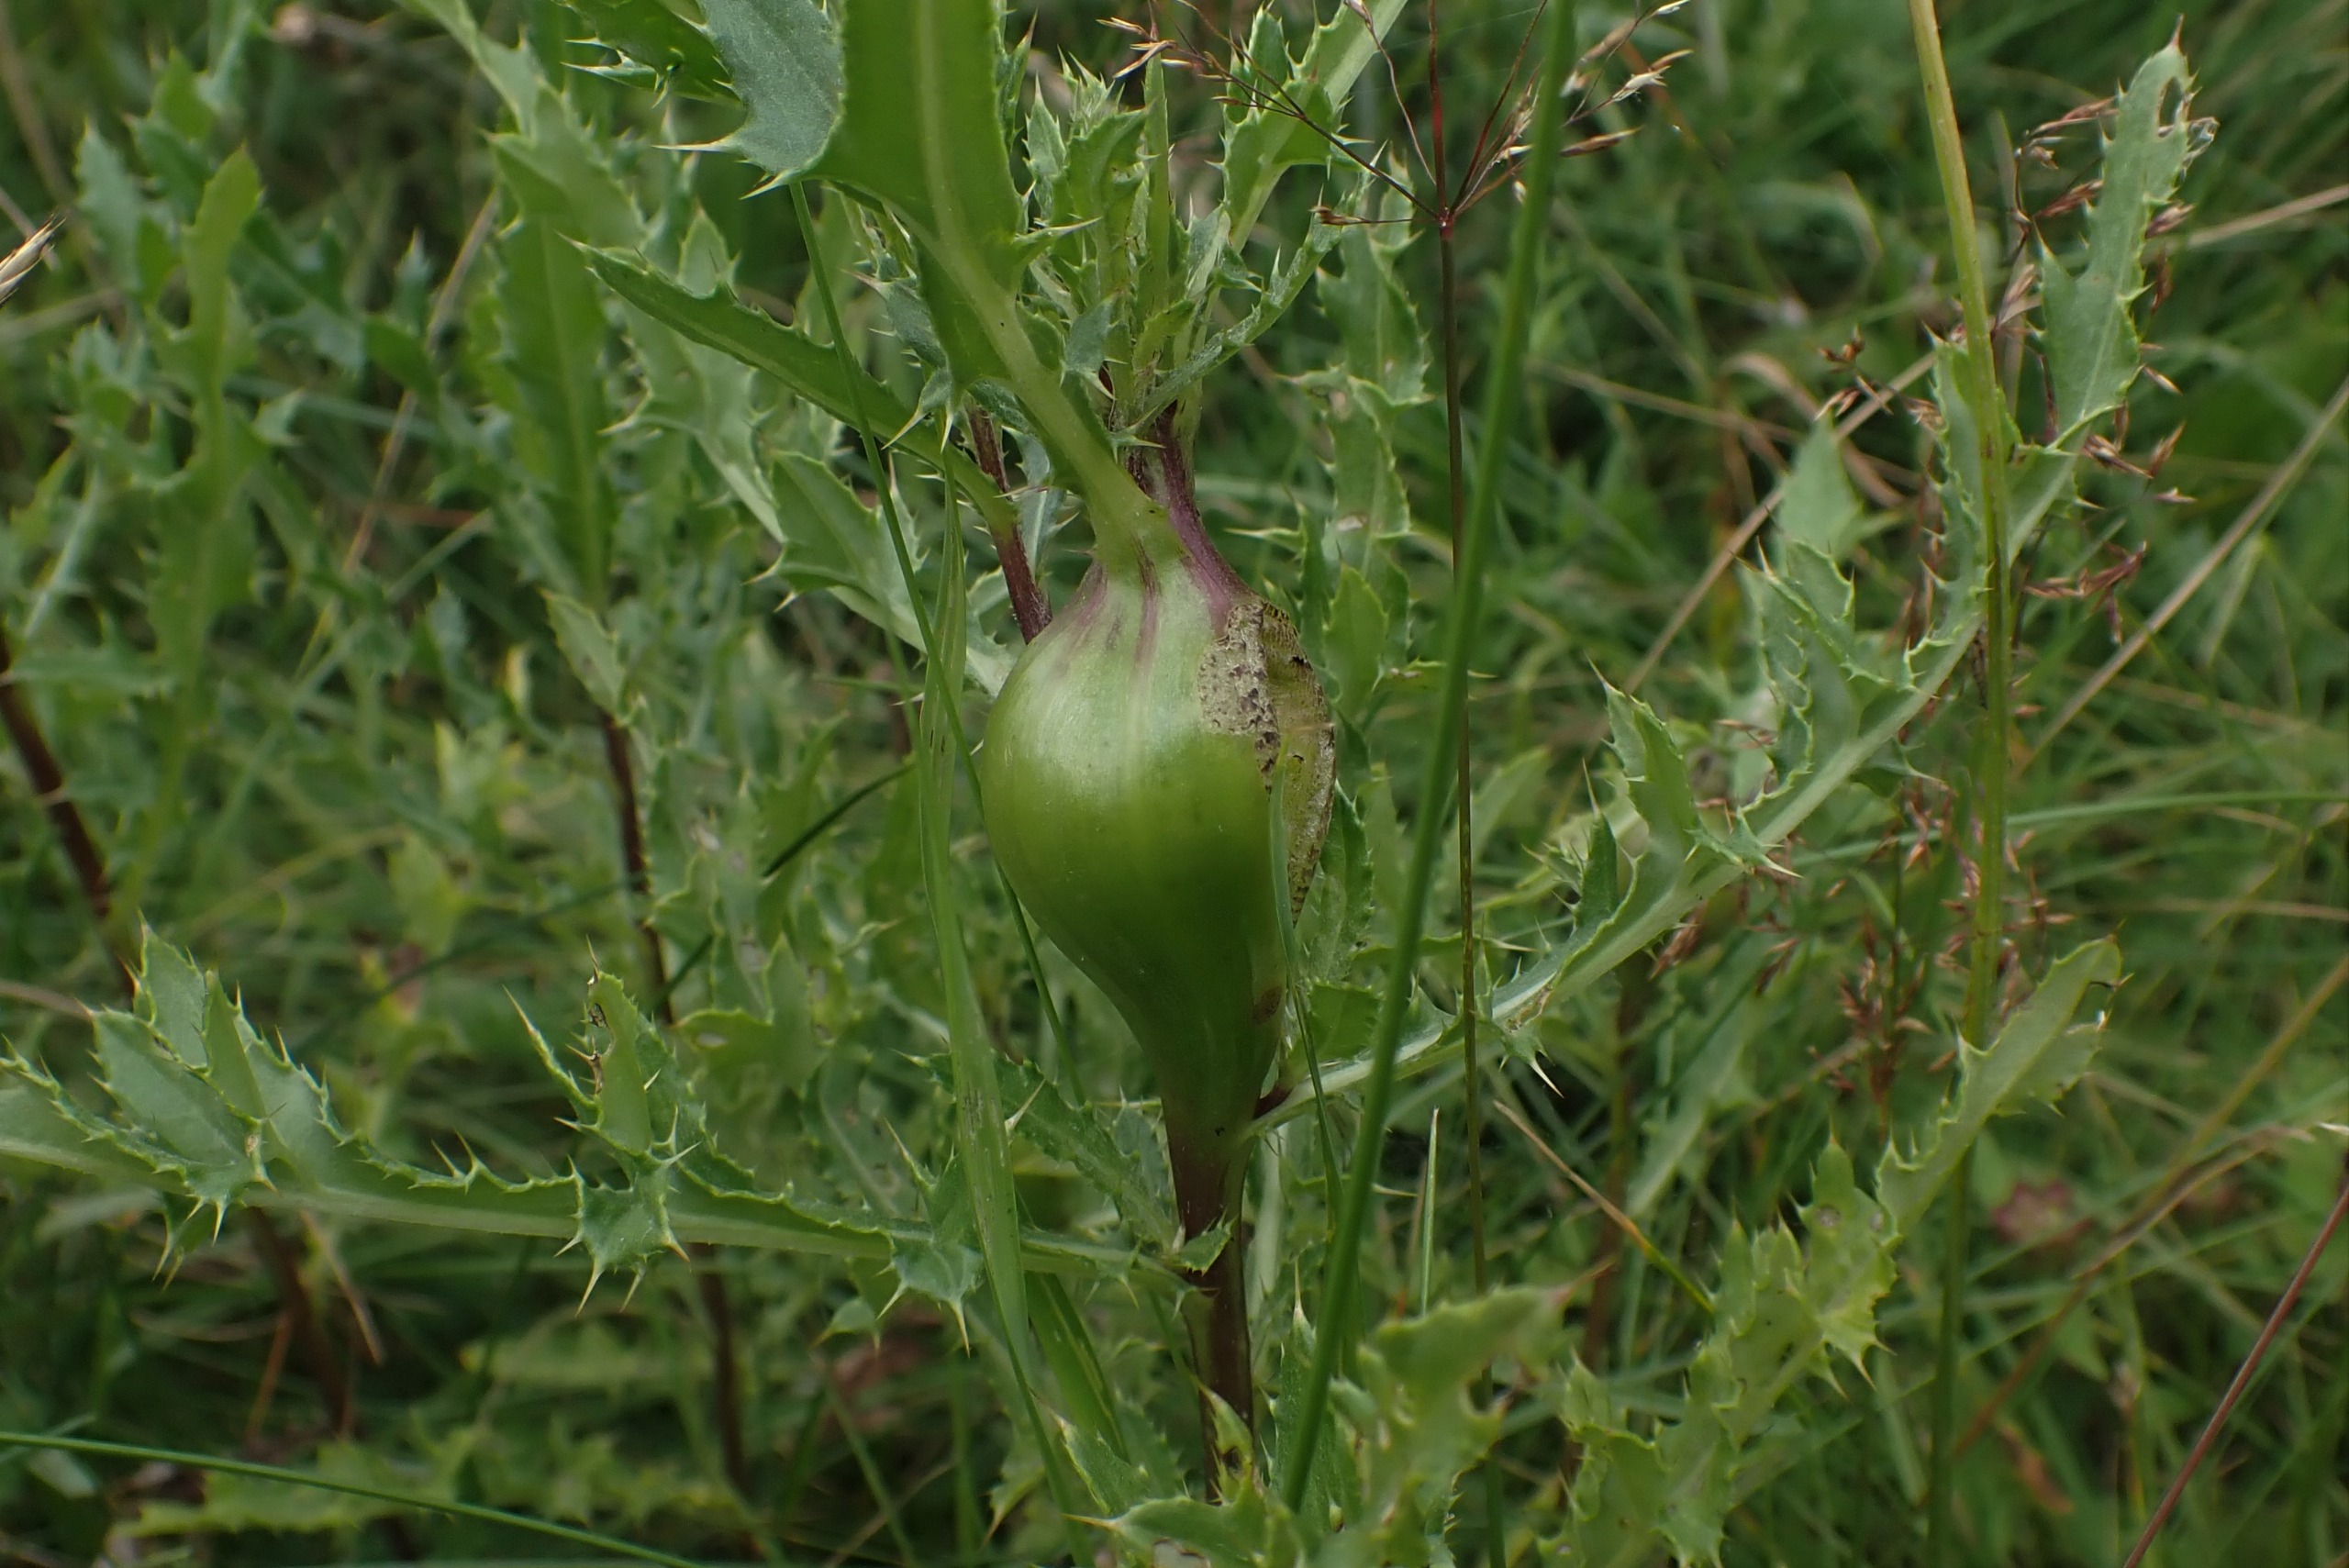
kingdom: Animalia
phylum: Arthropoda
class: Insecta
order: Diptera
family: Tephritidae
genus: Urophora
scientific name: Urophora cardui
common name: Tidselbåndflue
